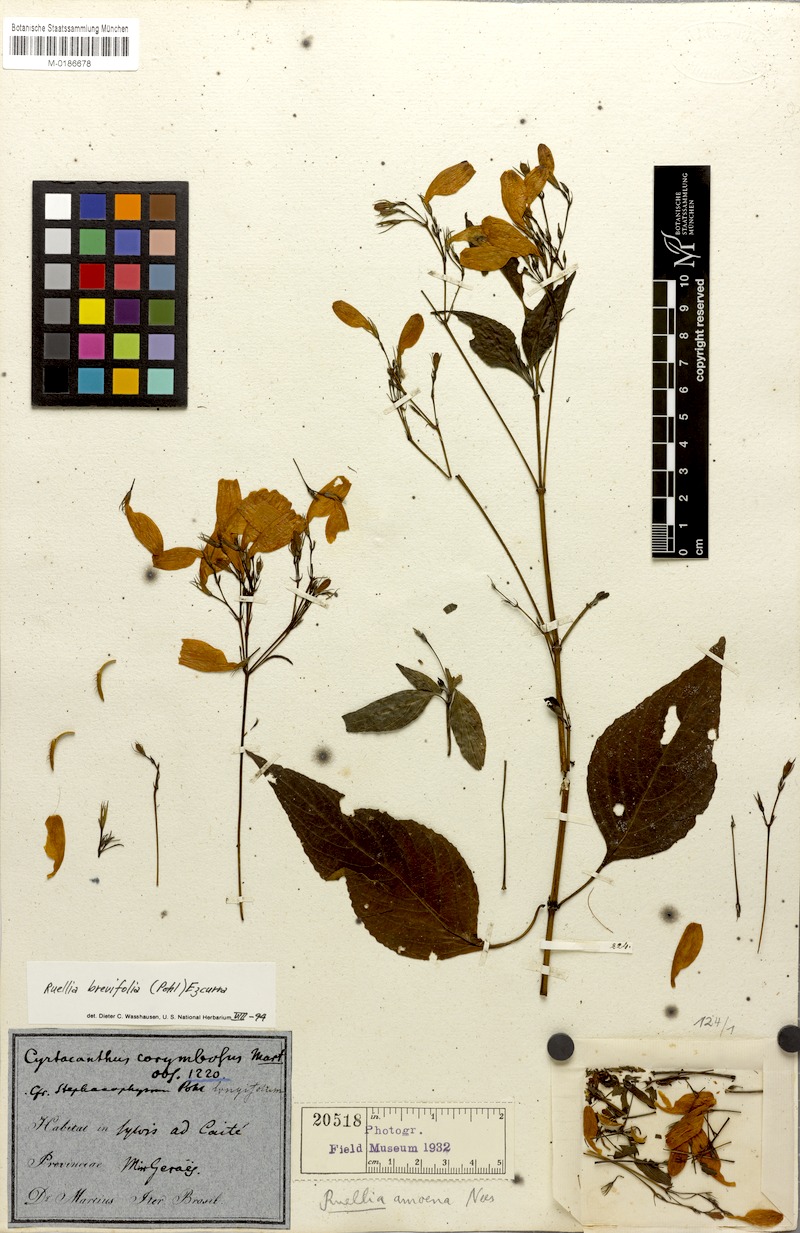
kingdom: Plantae
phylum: Tracheophyta
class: Magnoliopsida
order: Lamiales
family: Acanthaceae
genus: Ruellia
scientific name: Ruellia brevifolia
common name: Tropical wild petunia
